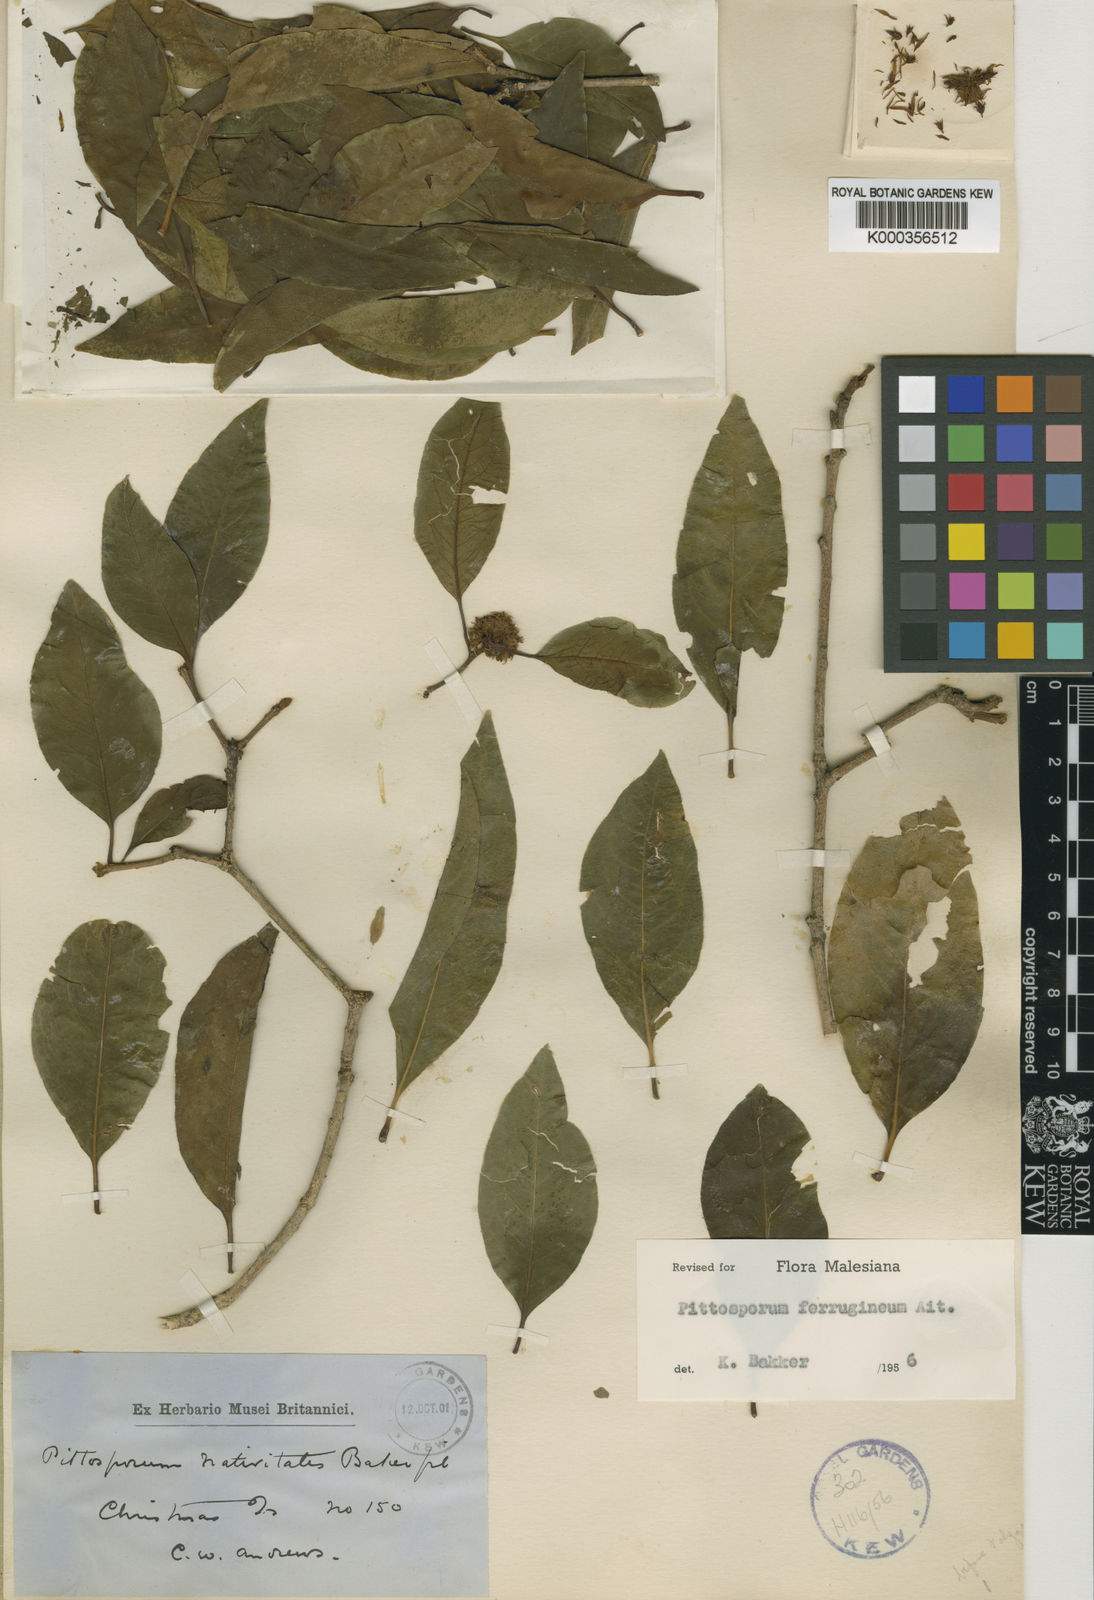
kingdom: Plantae
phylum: Tracheophyta
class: Magnoliopsida
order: Apiales
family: Pittosporaceae
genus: Pittosporum
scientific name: Pittosporum ferrugineum
